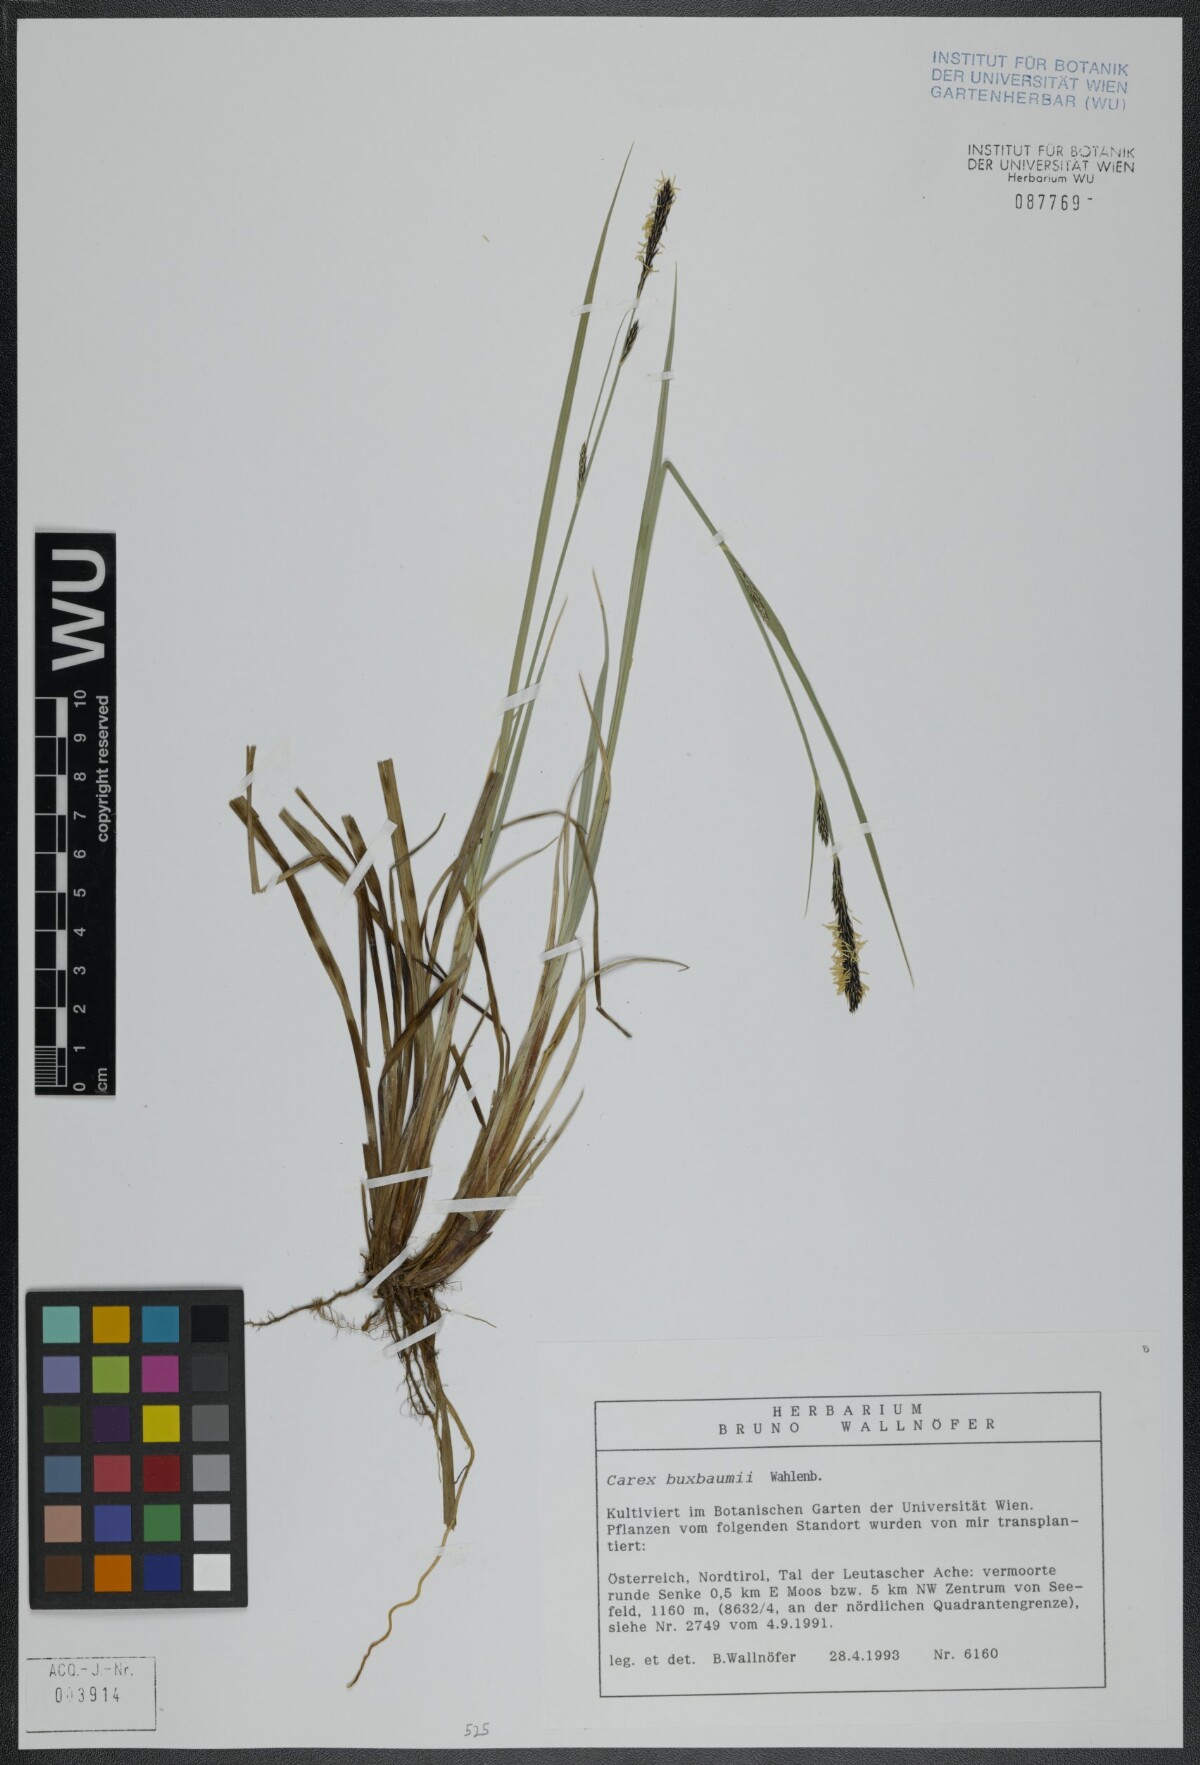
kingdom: Plantae
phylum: Tracheophyta
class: Liliopsida
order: Poales
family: Cyperaceae
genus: Carex
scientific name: Carex buxbaumii
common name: Club sedge
